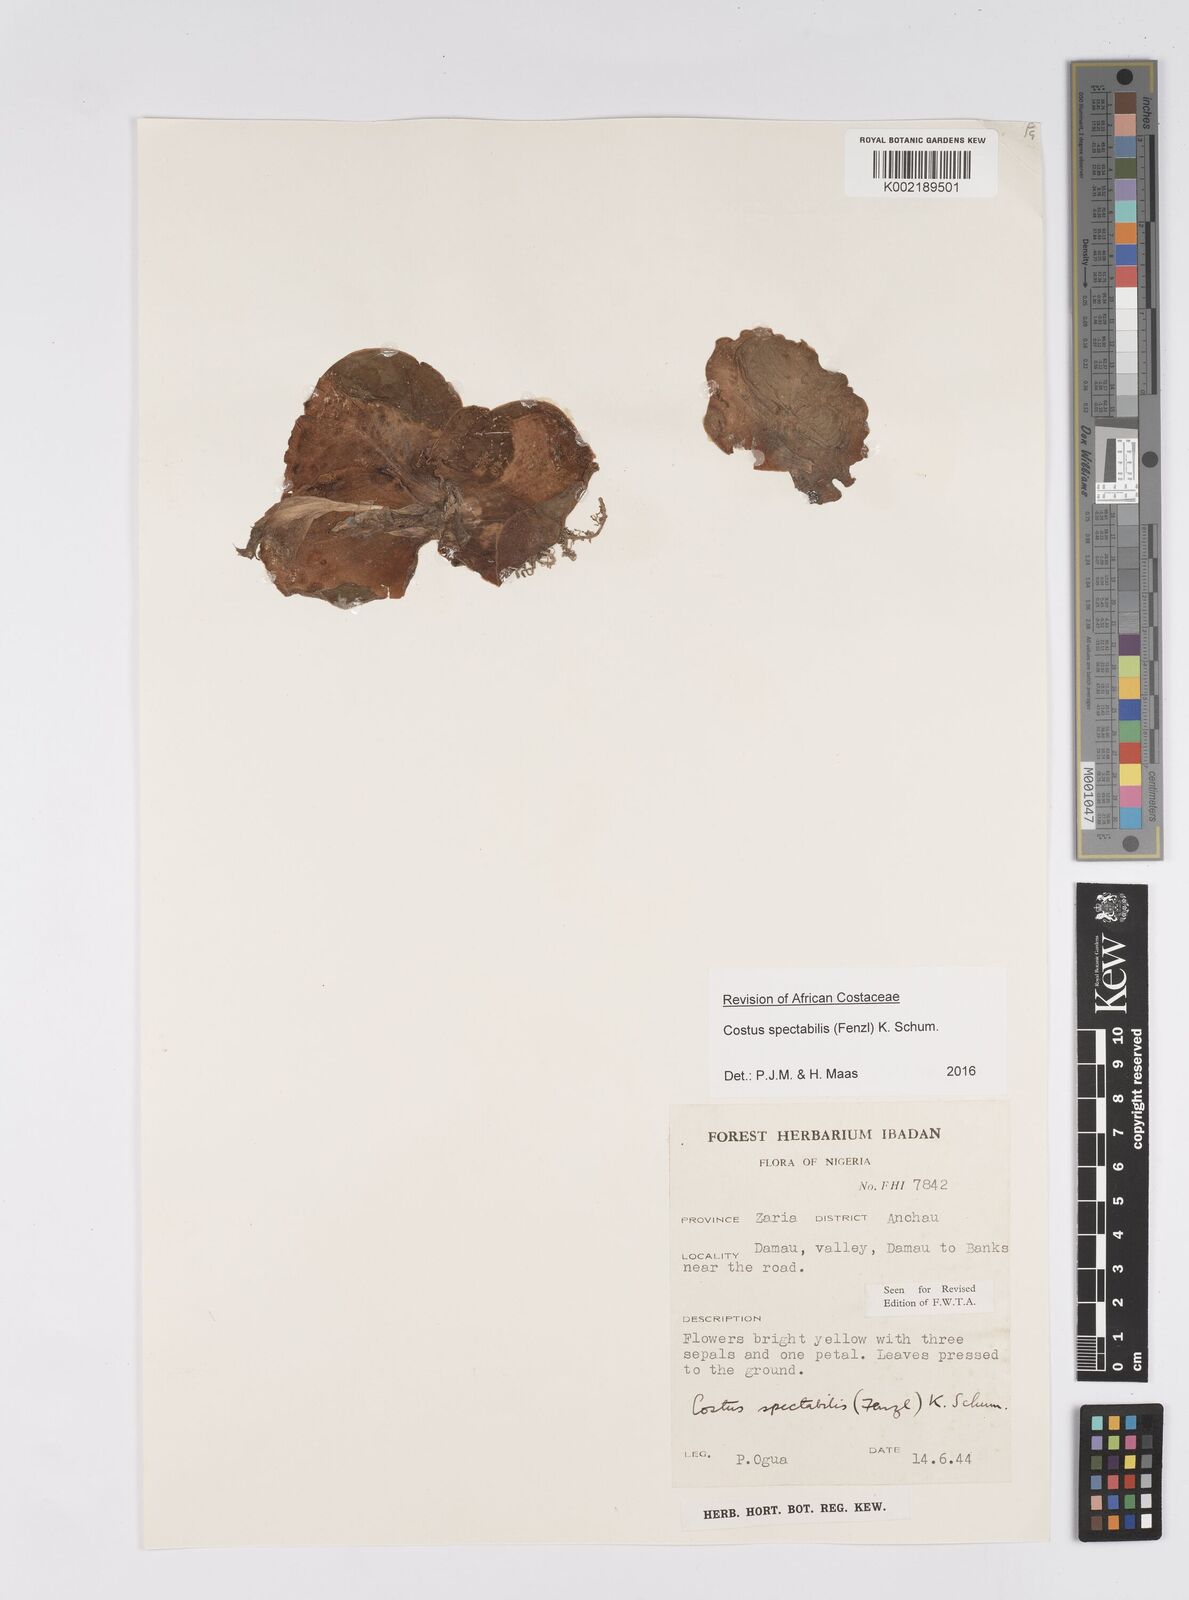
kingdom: Plantae
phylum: Tracheophyta
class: Liliopsida
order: Zingiberales
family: Costaceae
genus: Costus
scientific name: Costus spectabilis
